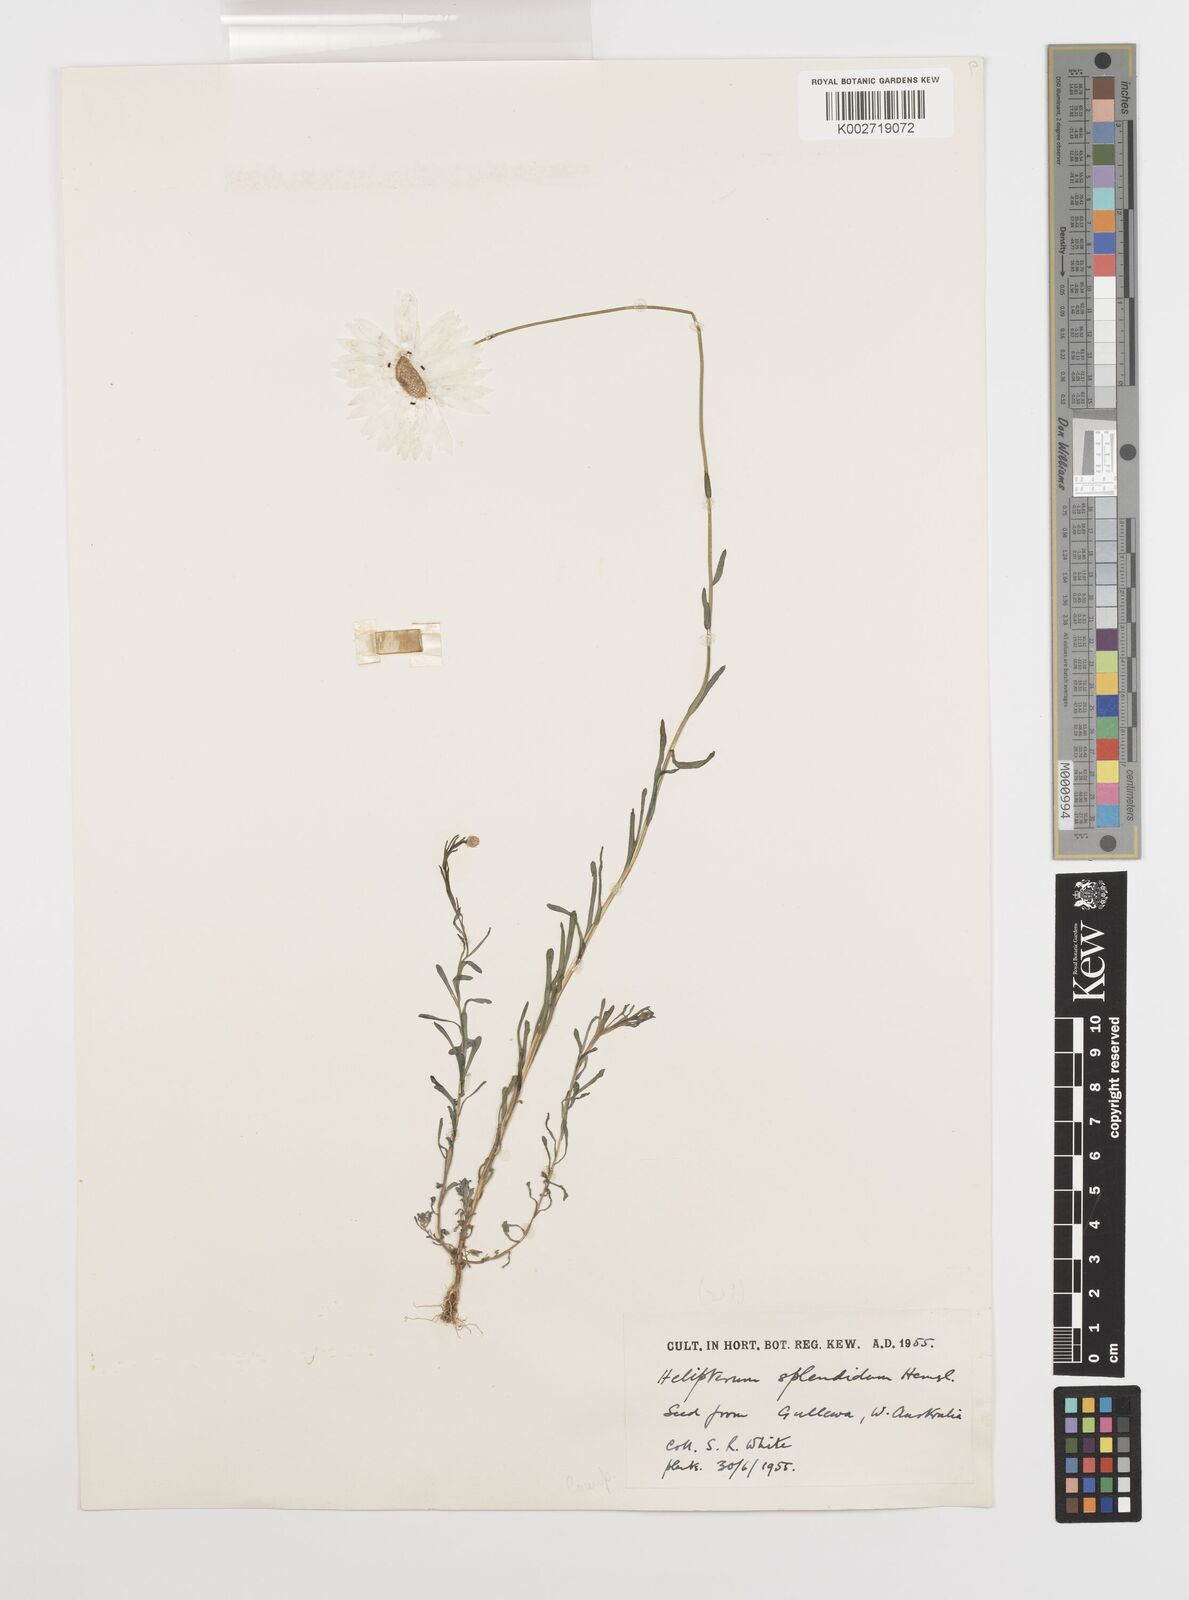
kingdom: Plantae
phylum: Tracheophyta
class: Magnoliopsida
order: Asterales
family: Asteraceae
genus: Rhodanthe
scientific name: Rhodanthe chlorocephala
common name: Rosy sunray
